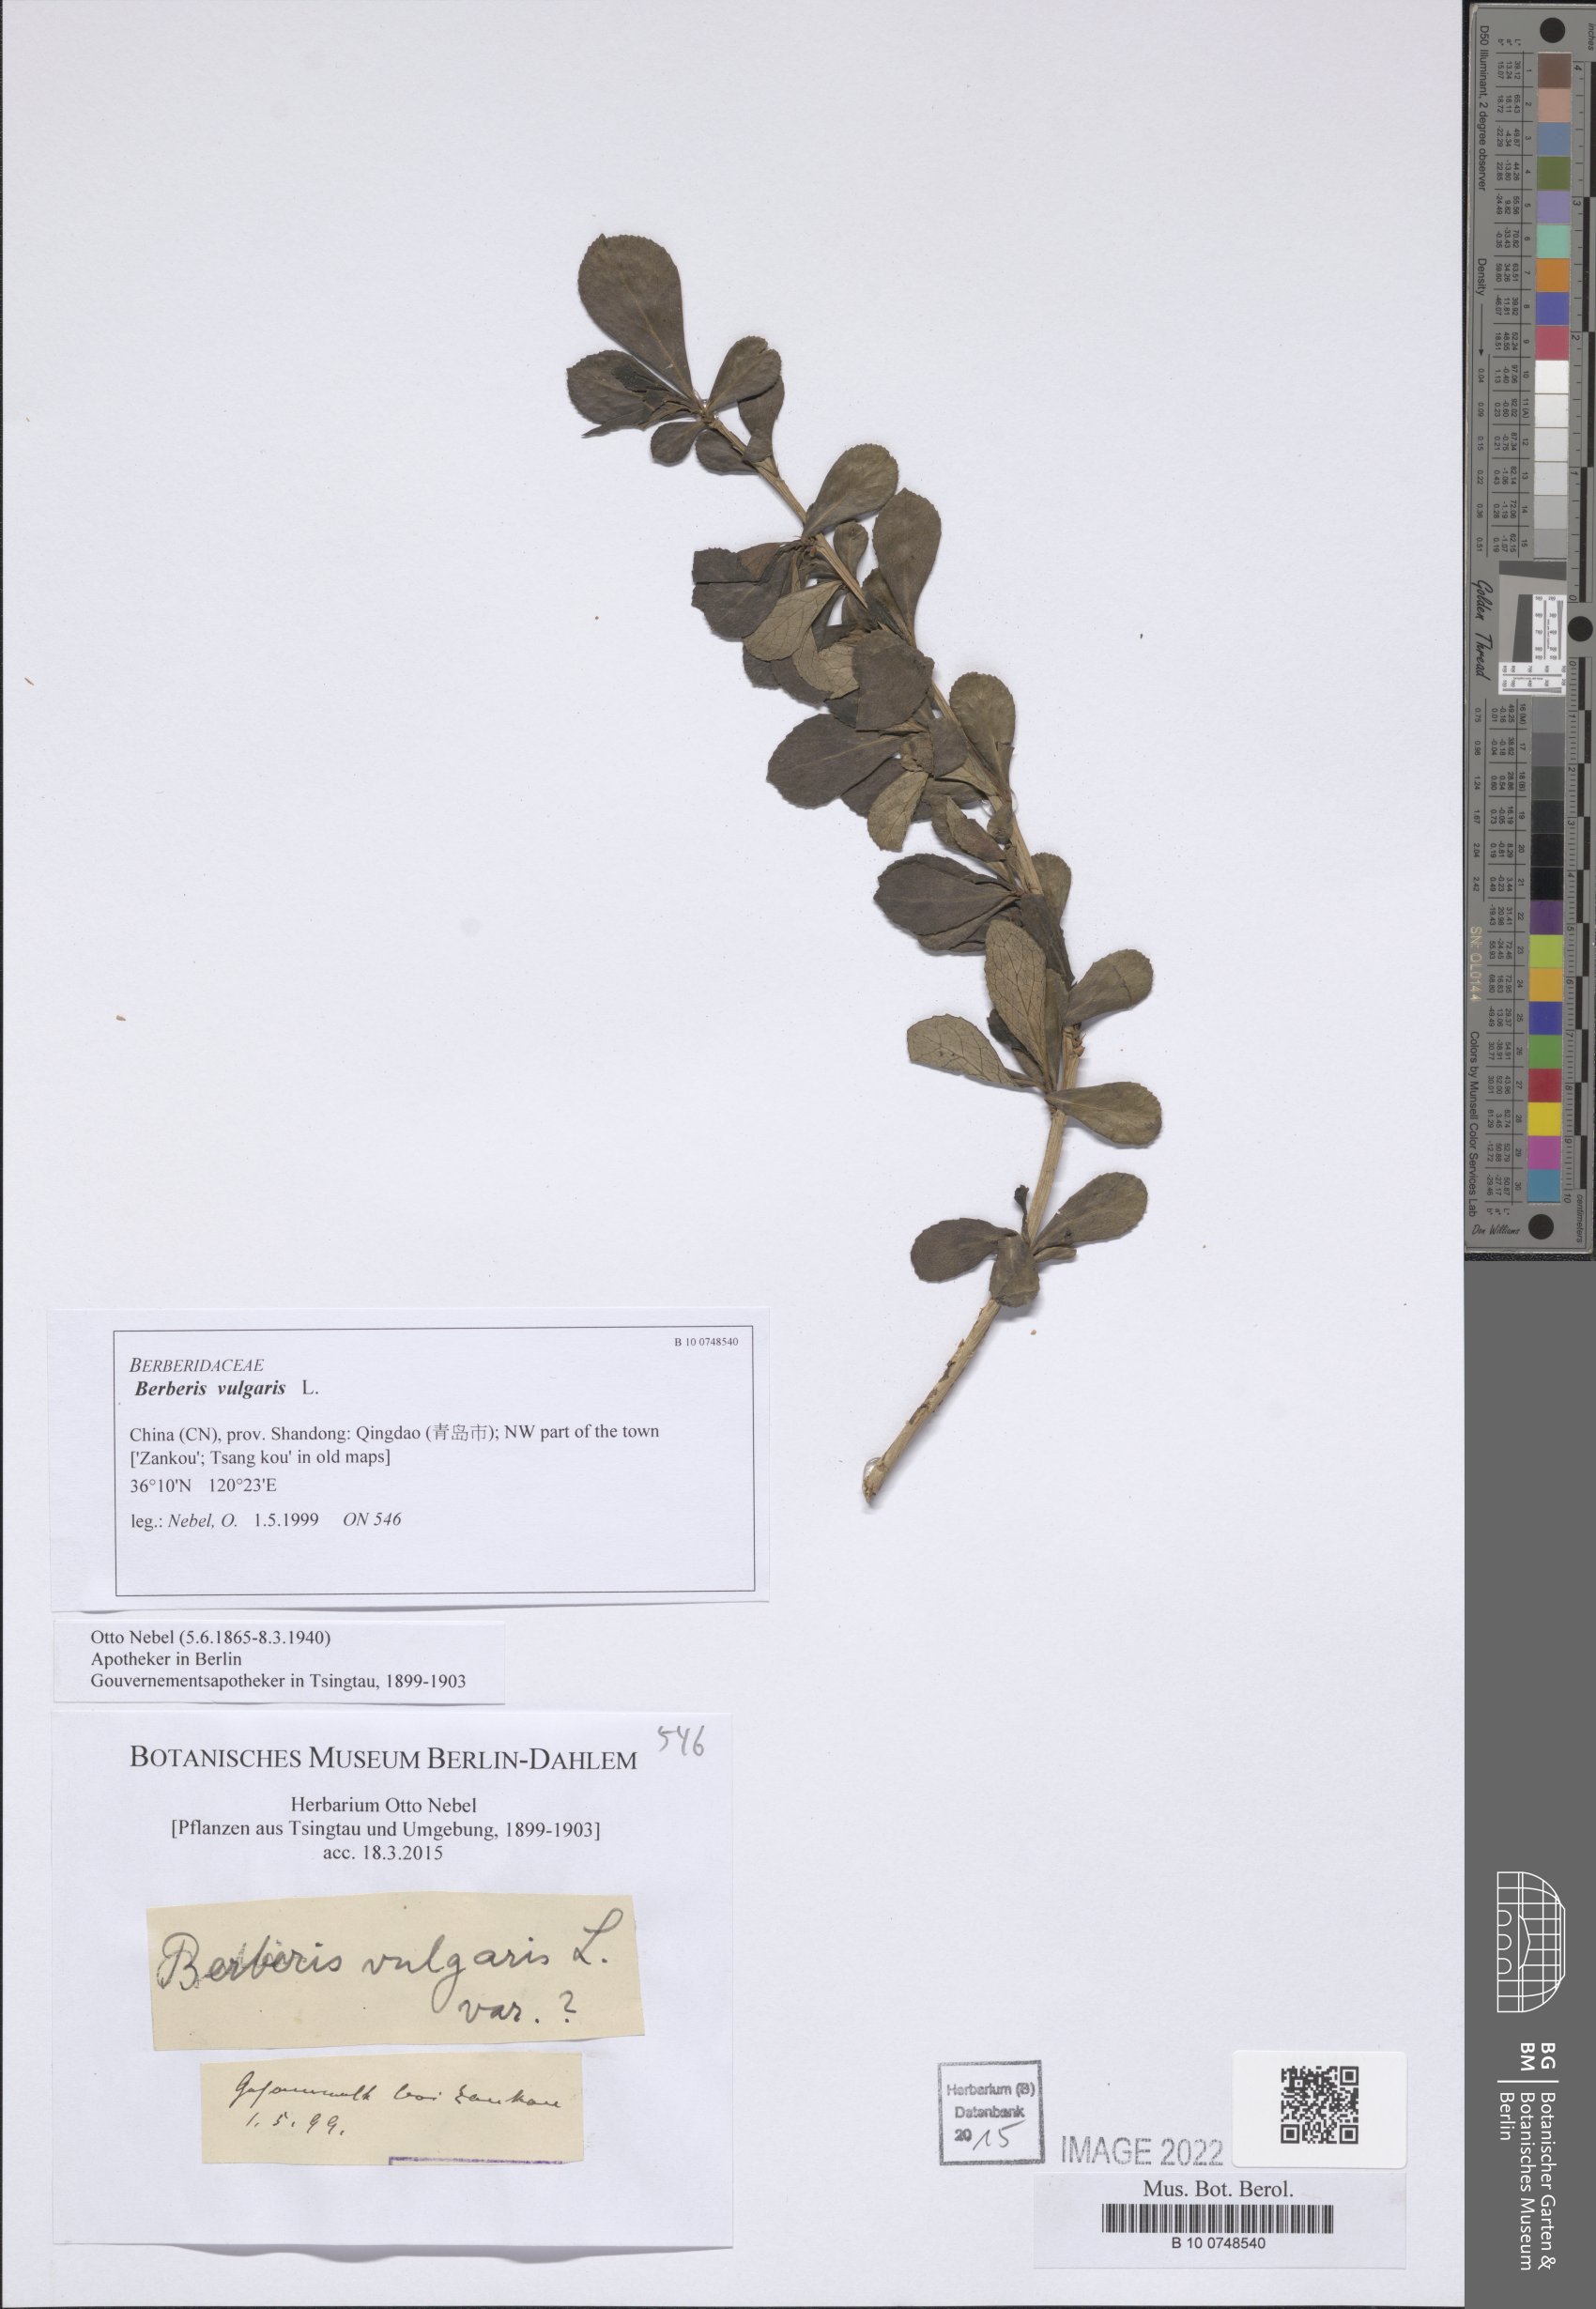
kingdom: Plantae
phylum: Tracheophyta
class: Magnoliopsida
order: Ranunculales
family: Berberidaceae
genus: Berberis
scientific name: Berberis vulgaris
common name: Barberry
